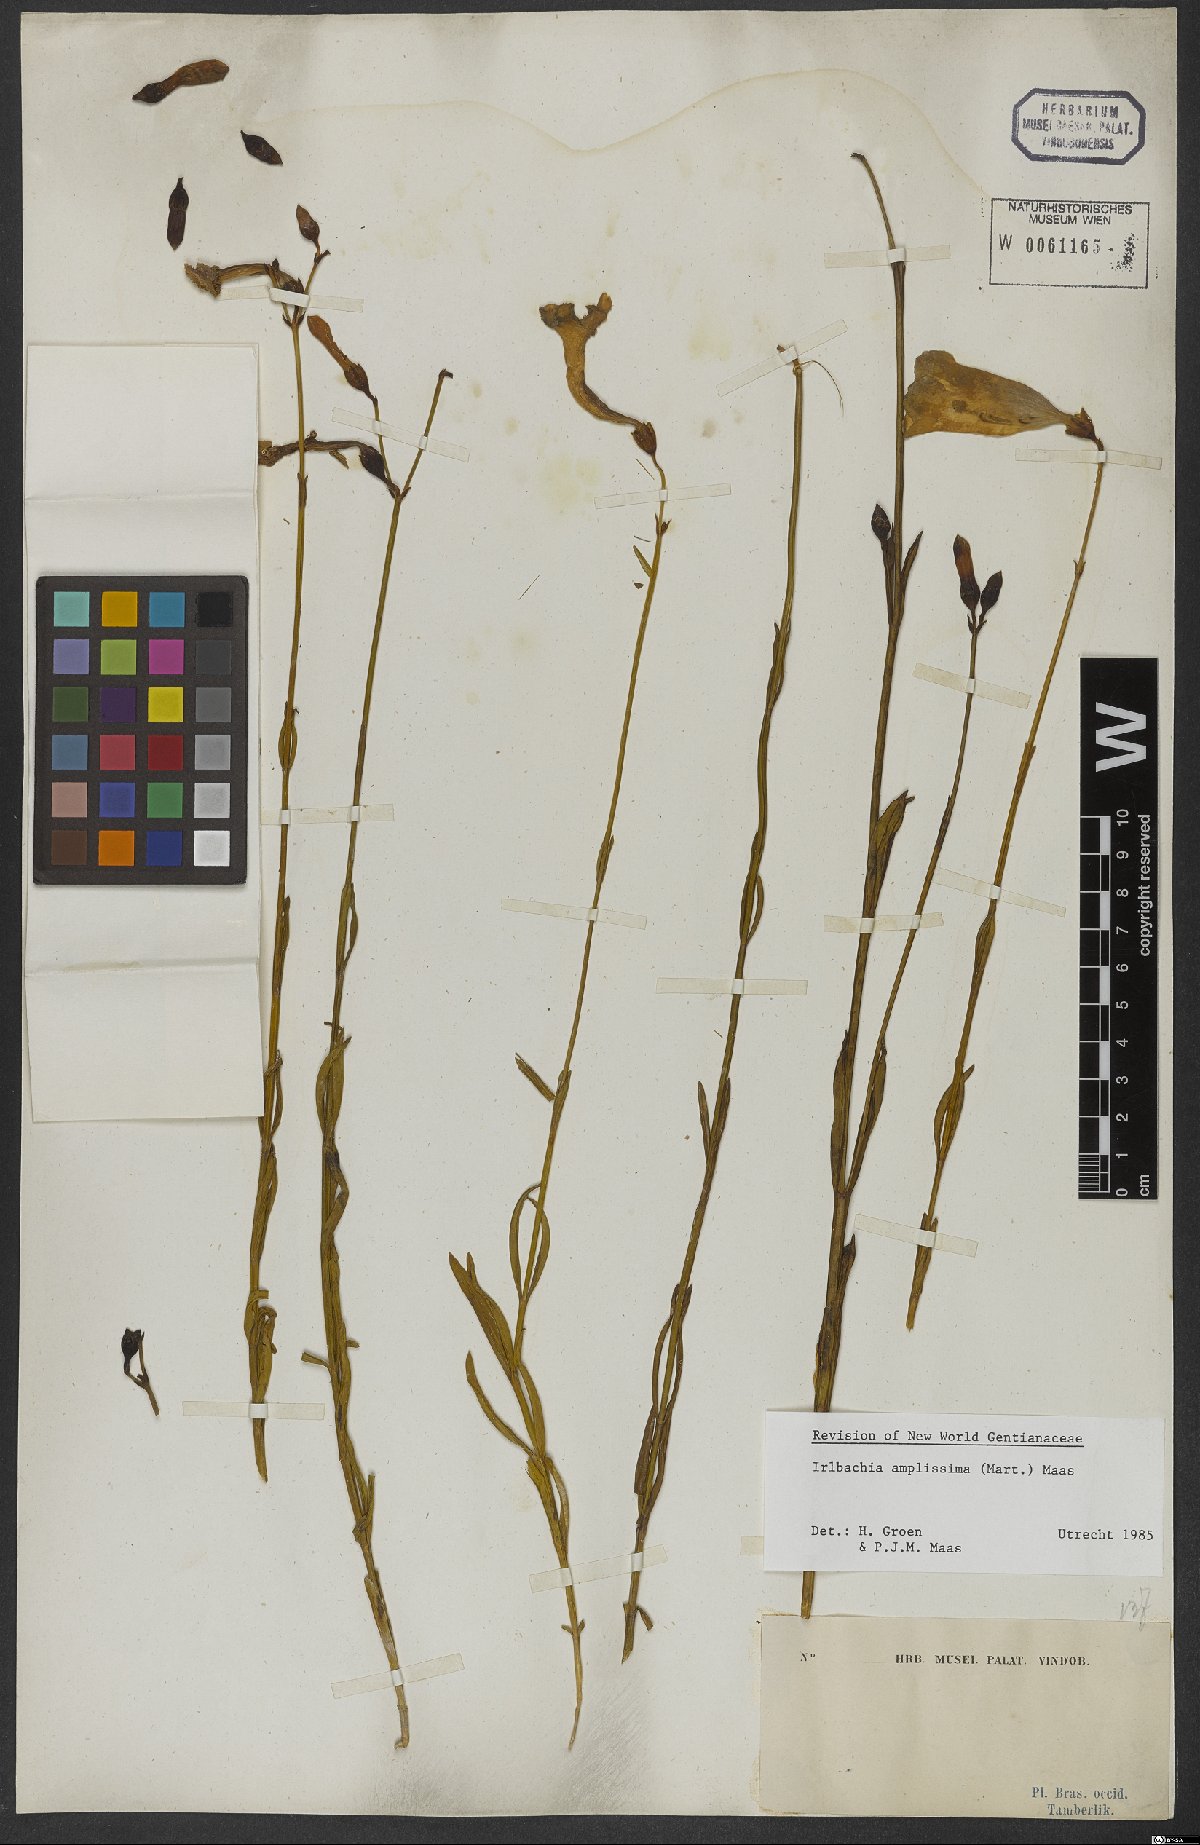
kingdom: Plantae
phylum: Tracheophyta
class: Magnoliopsida
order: Gentianales
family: Gentianaceae
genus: Calolisianthus
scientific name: Calolisianthus amplissimus
